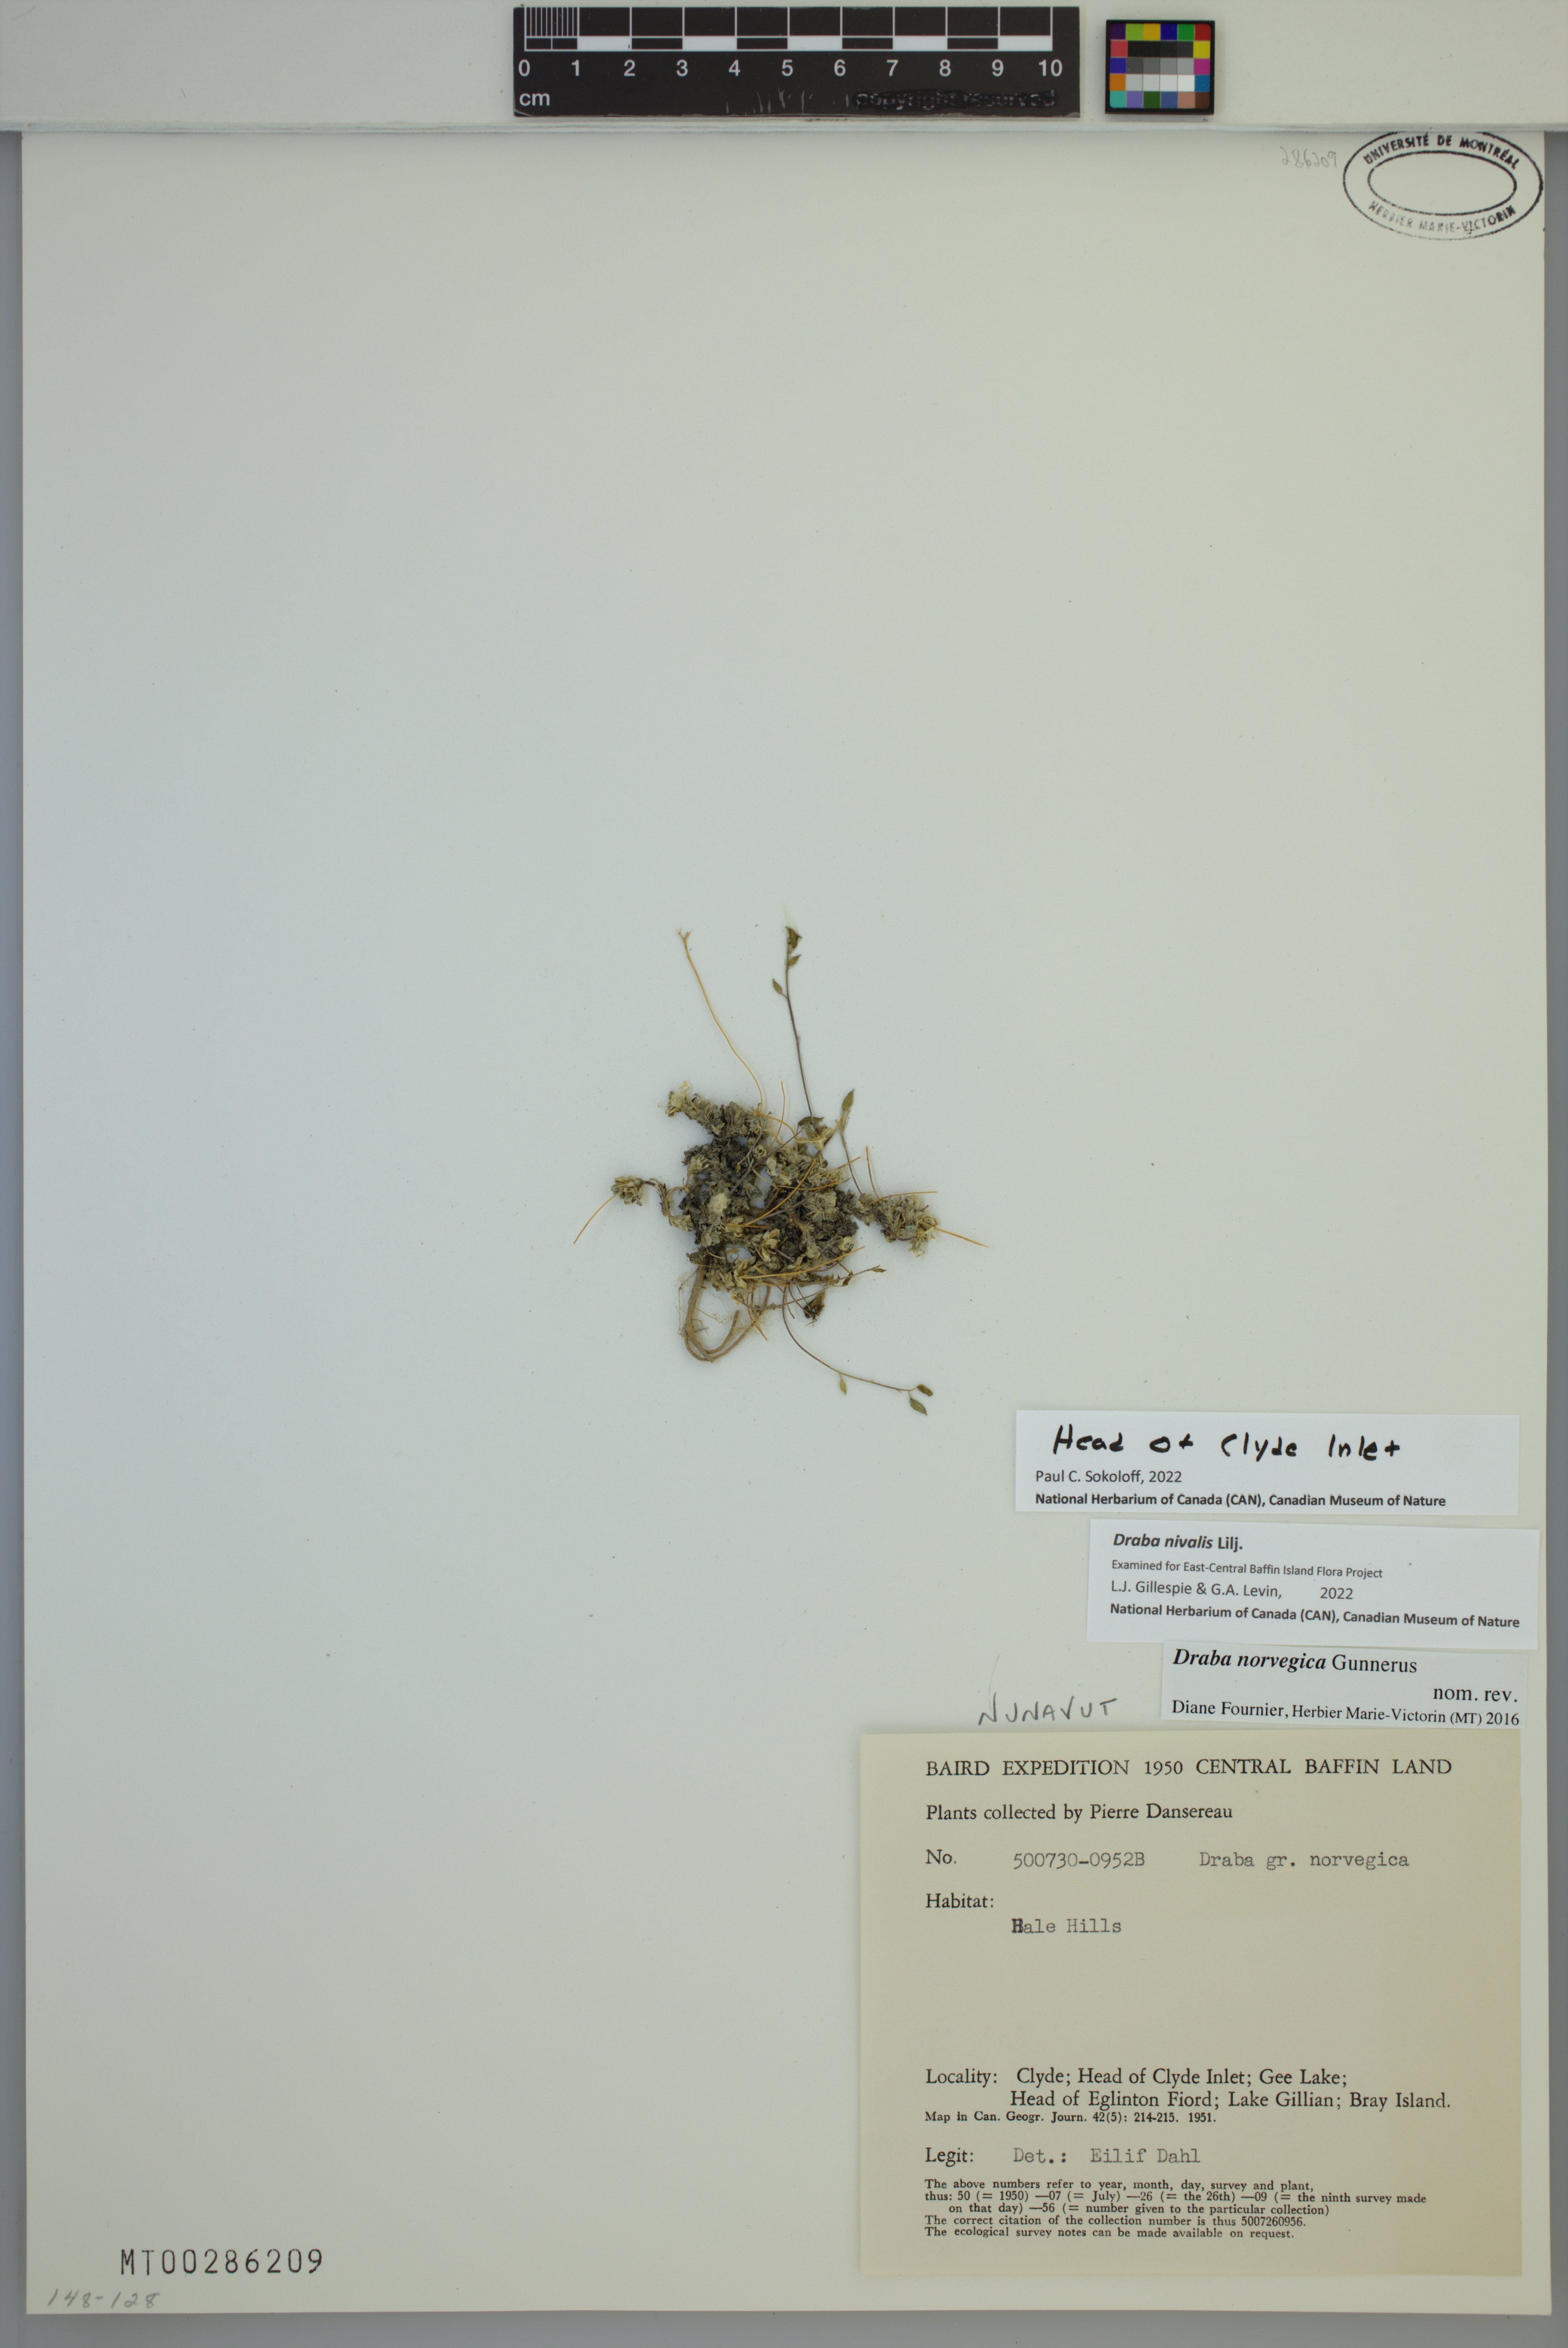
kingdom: Plantae
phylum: Tracheophyta
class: Magnoliopsida
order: Brassicales
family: Brassicaceae
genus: Draba
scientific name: Draba nivalis
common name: Snow draba
